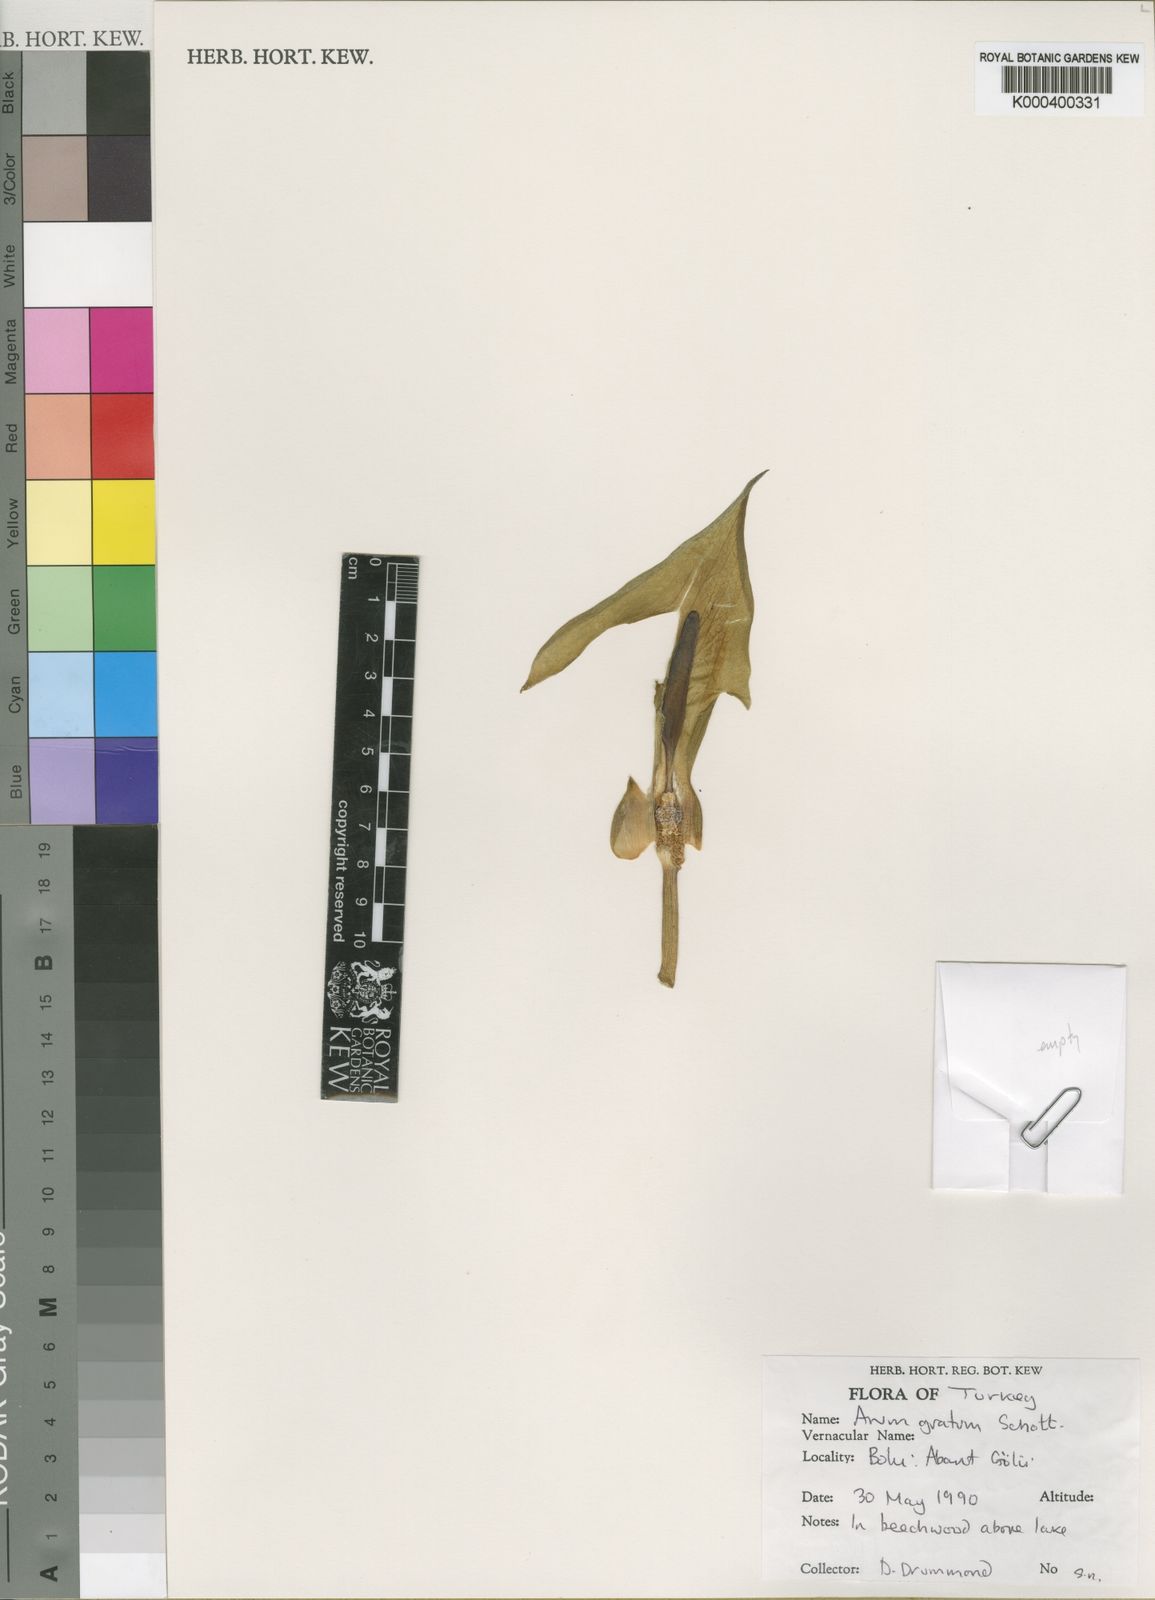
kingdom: Plantae
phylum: Tracheophyta
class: Liliopsida
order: Alismatales
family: Araceae
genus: Arum
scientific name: Arum gratum
